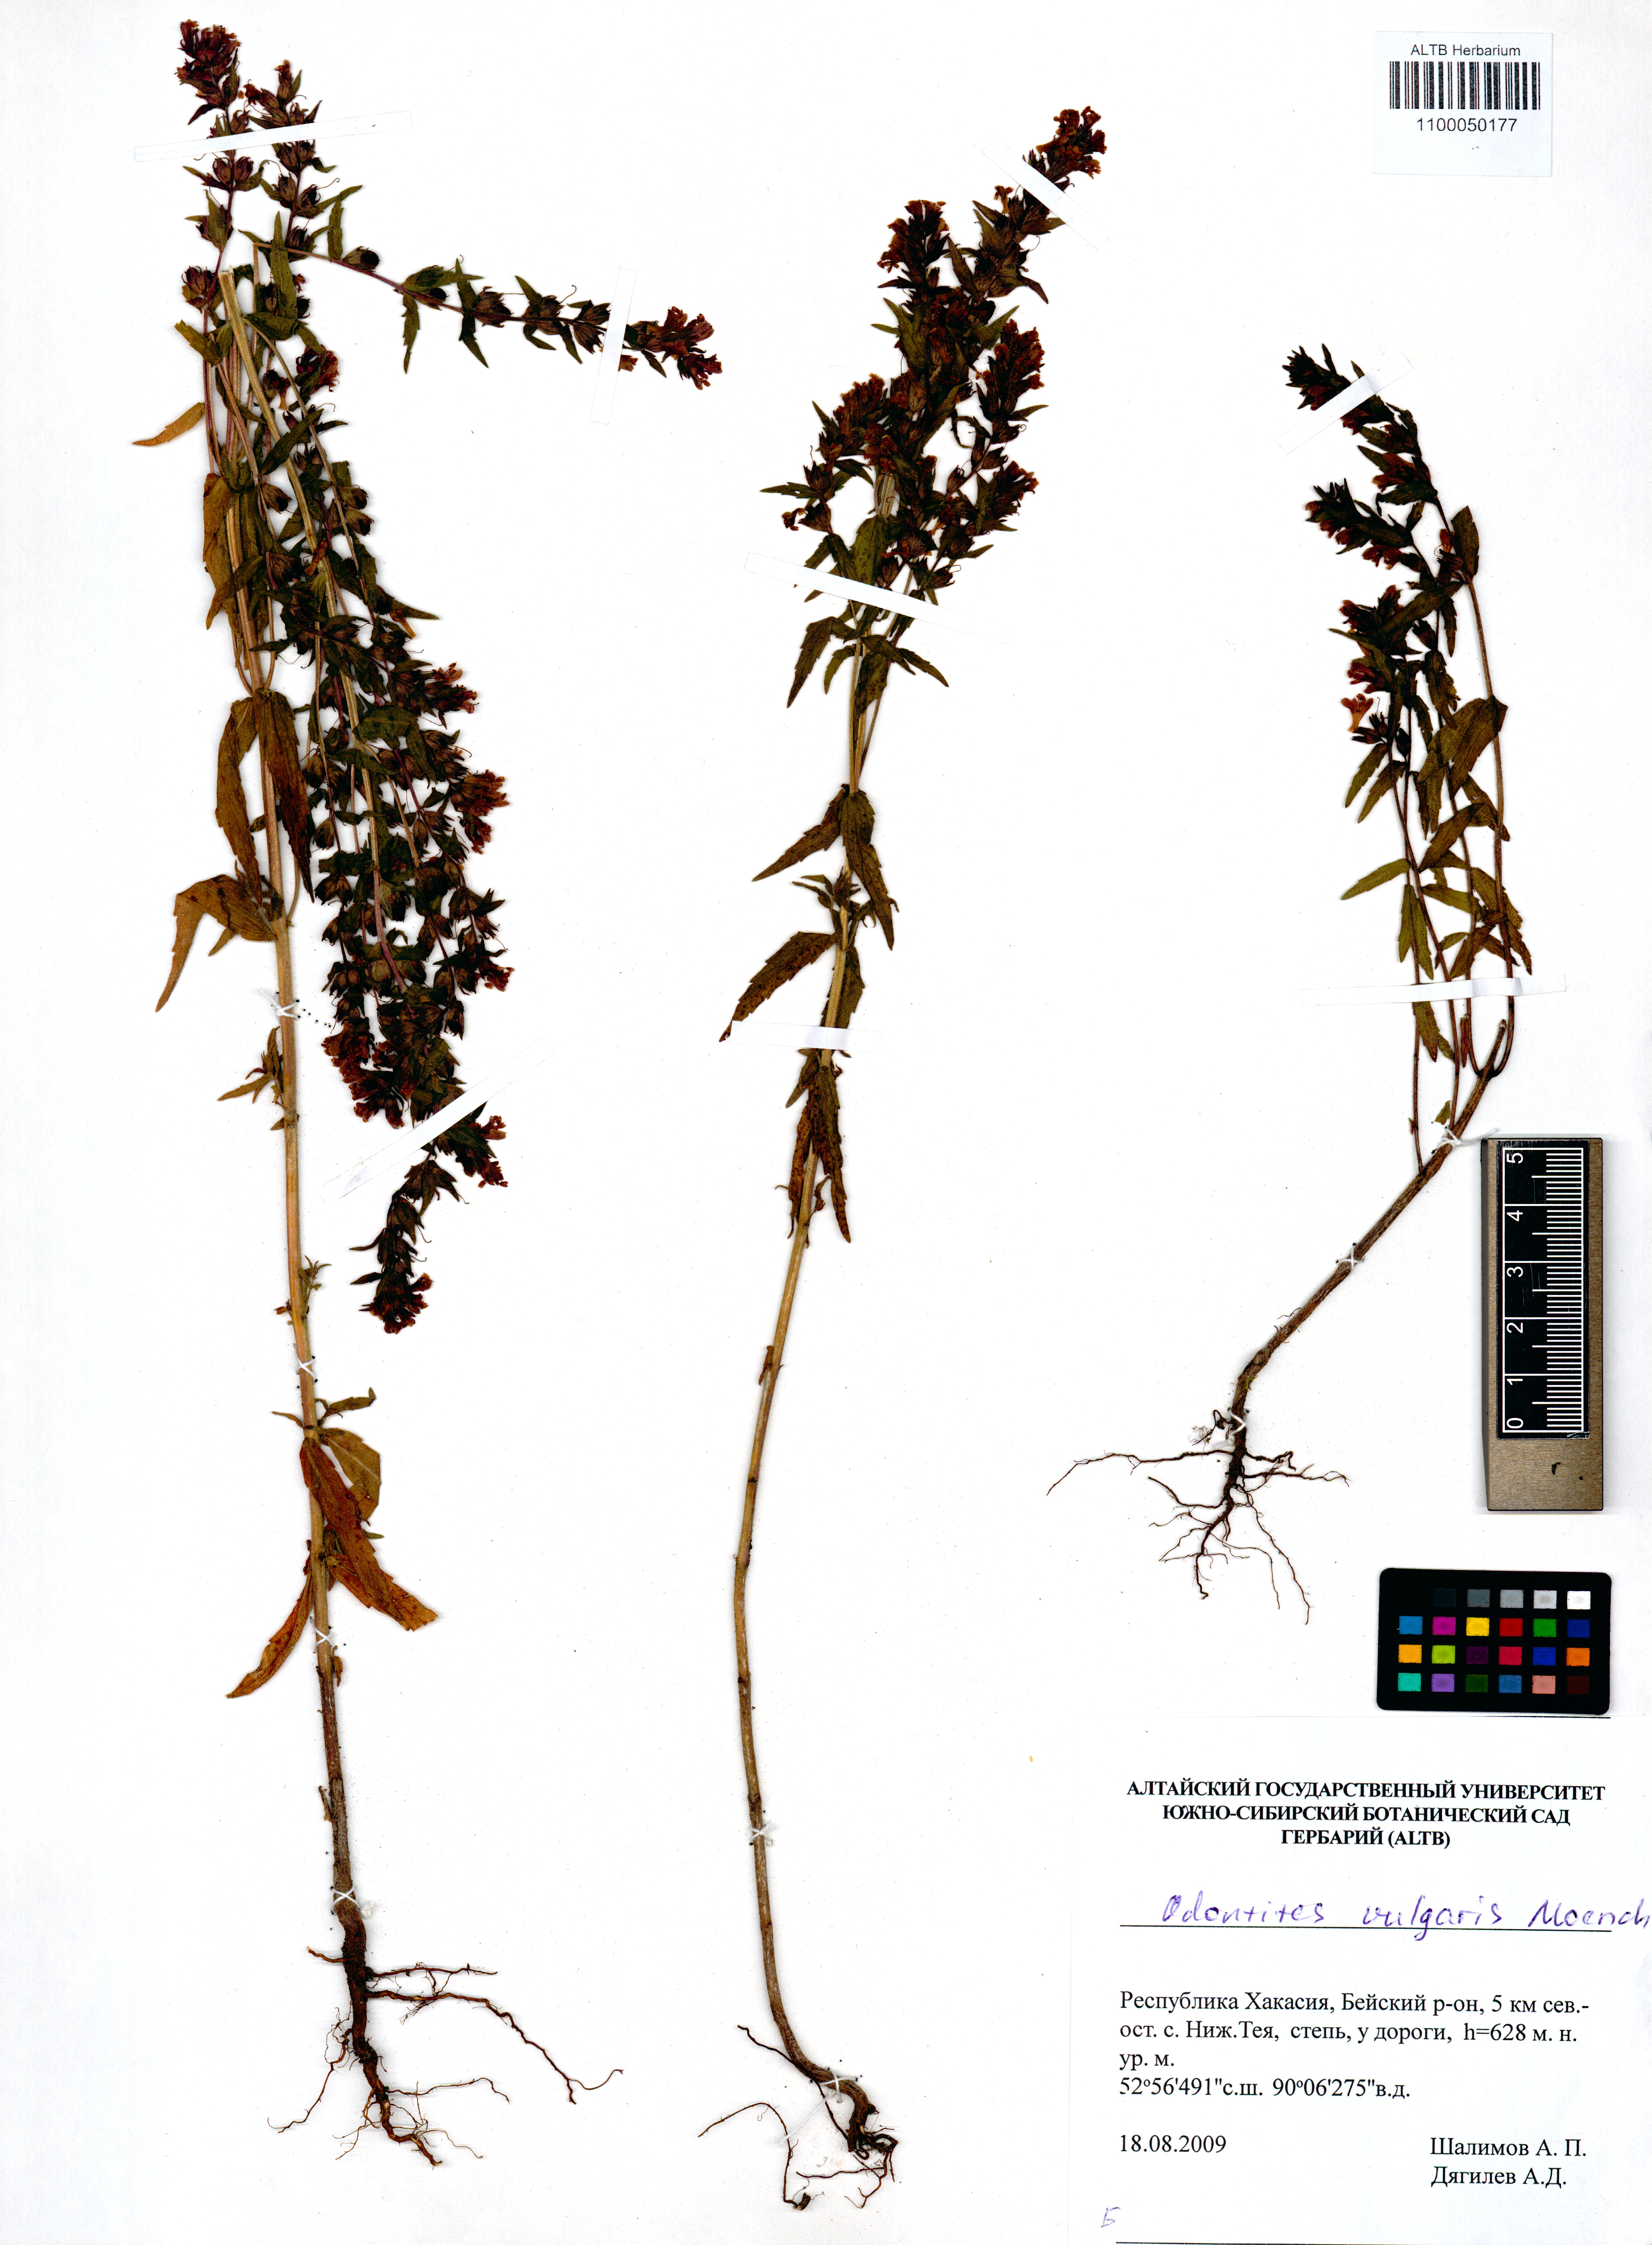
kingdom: Plantae
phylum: Tracheophyta
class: Magnoliopsida
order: Lamiales
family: Orobanchaceae
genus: Odontites
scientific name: Odontites vulgaris
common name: Broomrape
